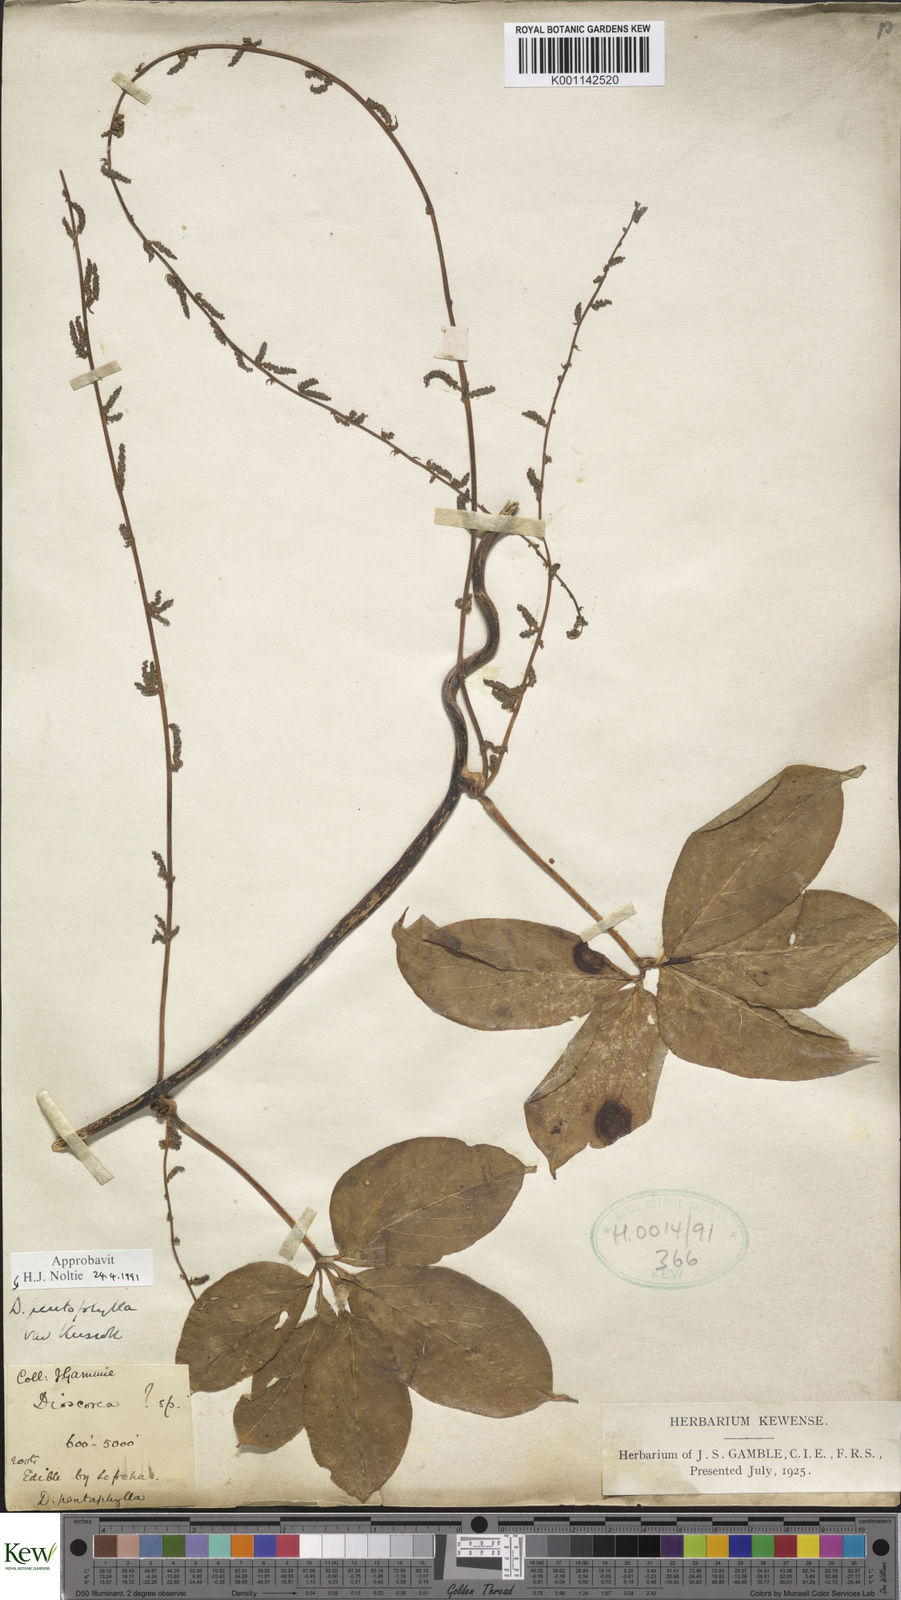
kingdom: Plantae
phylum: Tracheophyta
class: Liliopsida
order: Dioscoreales
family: Dioscoreaceae
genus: Dioscorea
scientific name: Dioscorea pentaphylla
